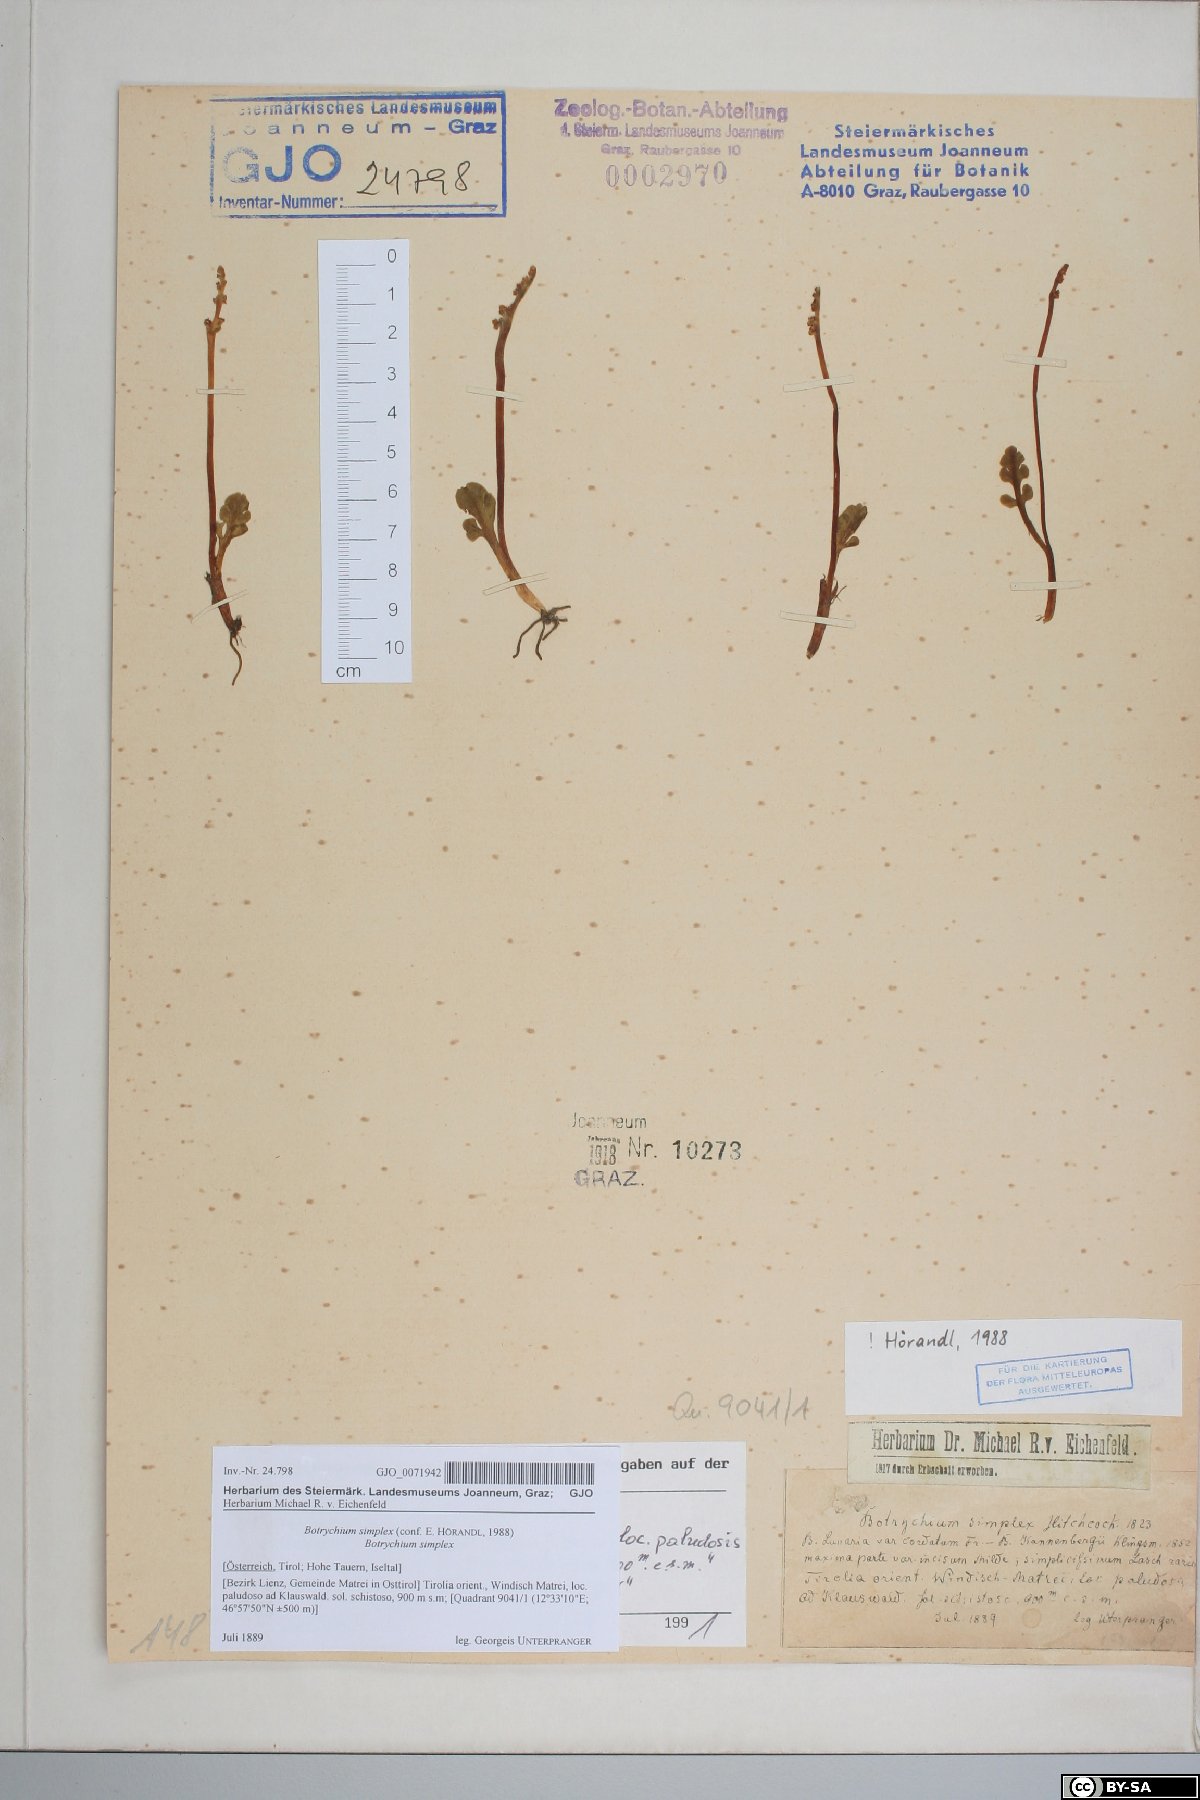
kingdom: Plantae
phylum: Tracheophyta
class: Polypodiopsida
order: Ophioglossales
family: Ophioglossaceae
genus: Botrychium
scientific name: Botrychium simplex
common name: Least moonwort
